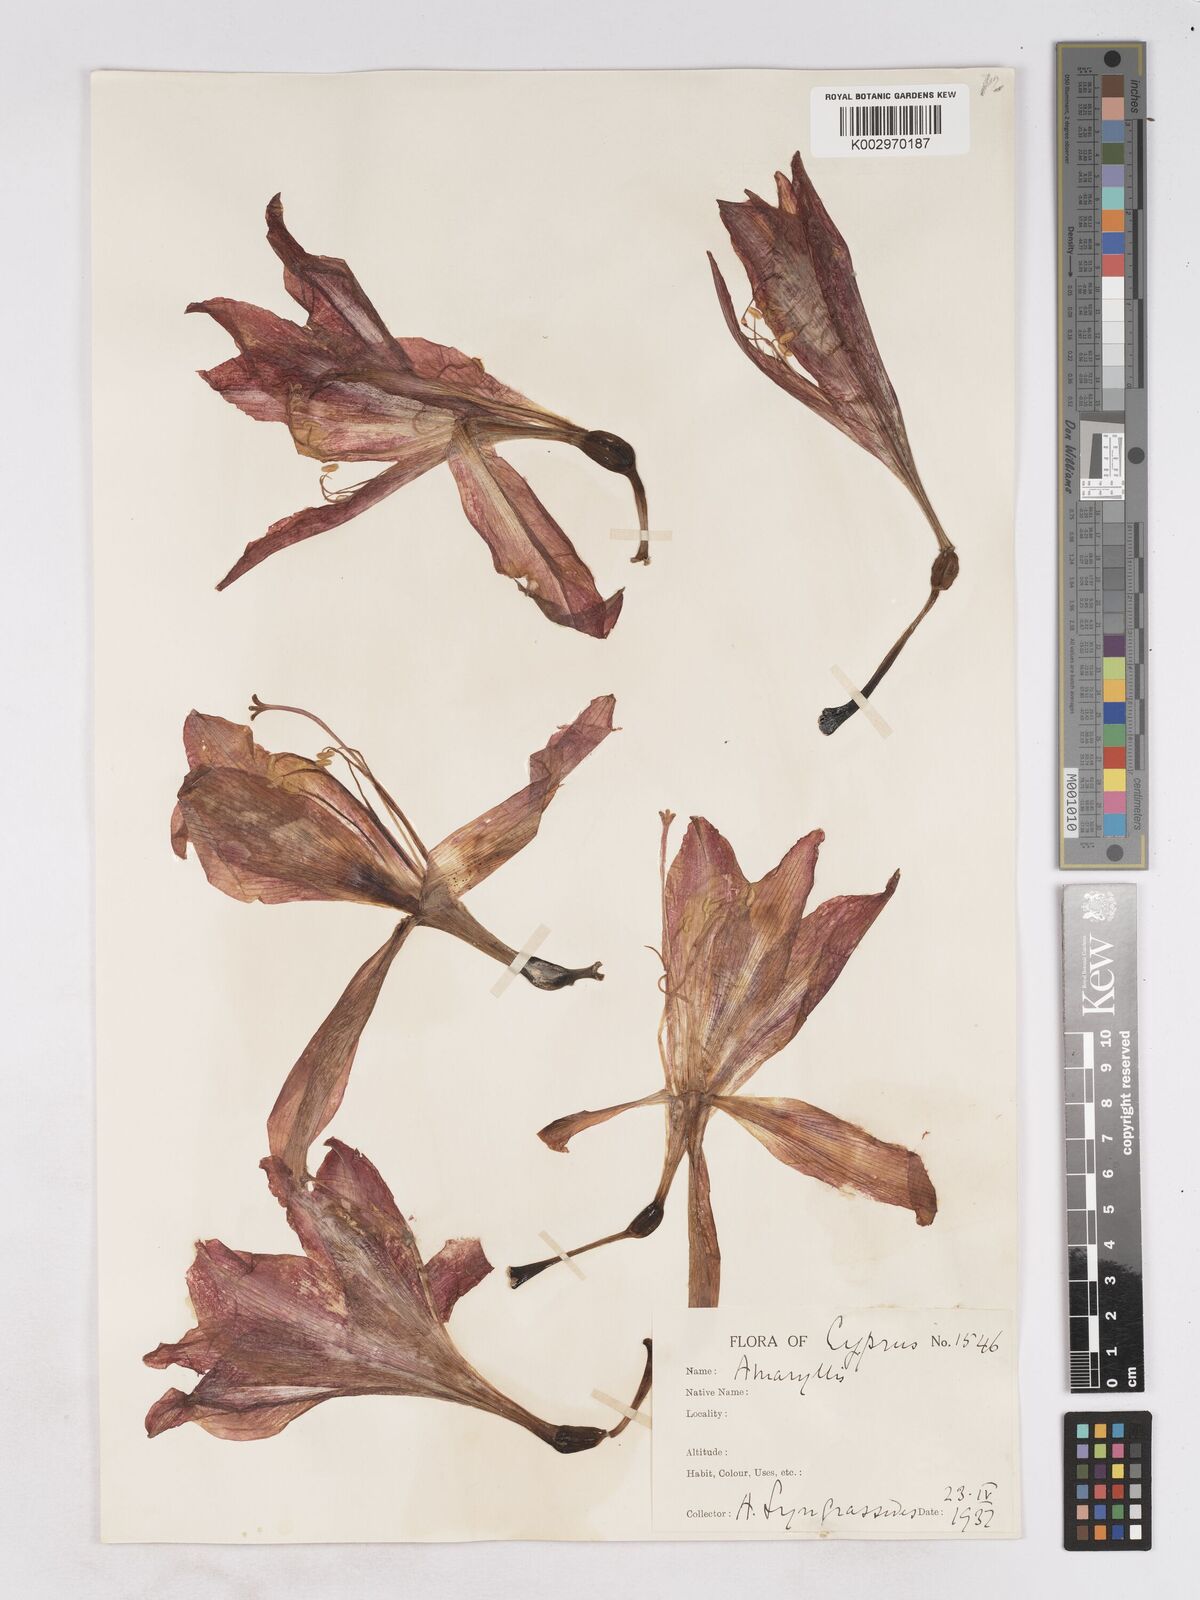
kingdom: Plantae
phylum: Tracheophyta
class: Liliopsida
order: Asparagales
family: Amaryllidaceae
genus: Hippeastrum
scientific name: Hippeastrum johnsonii
